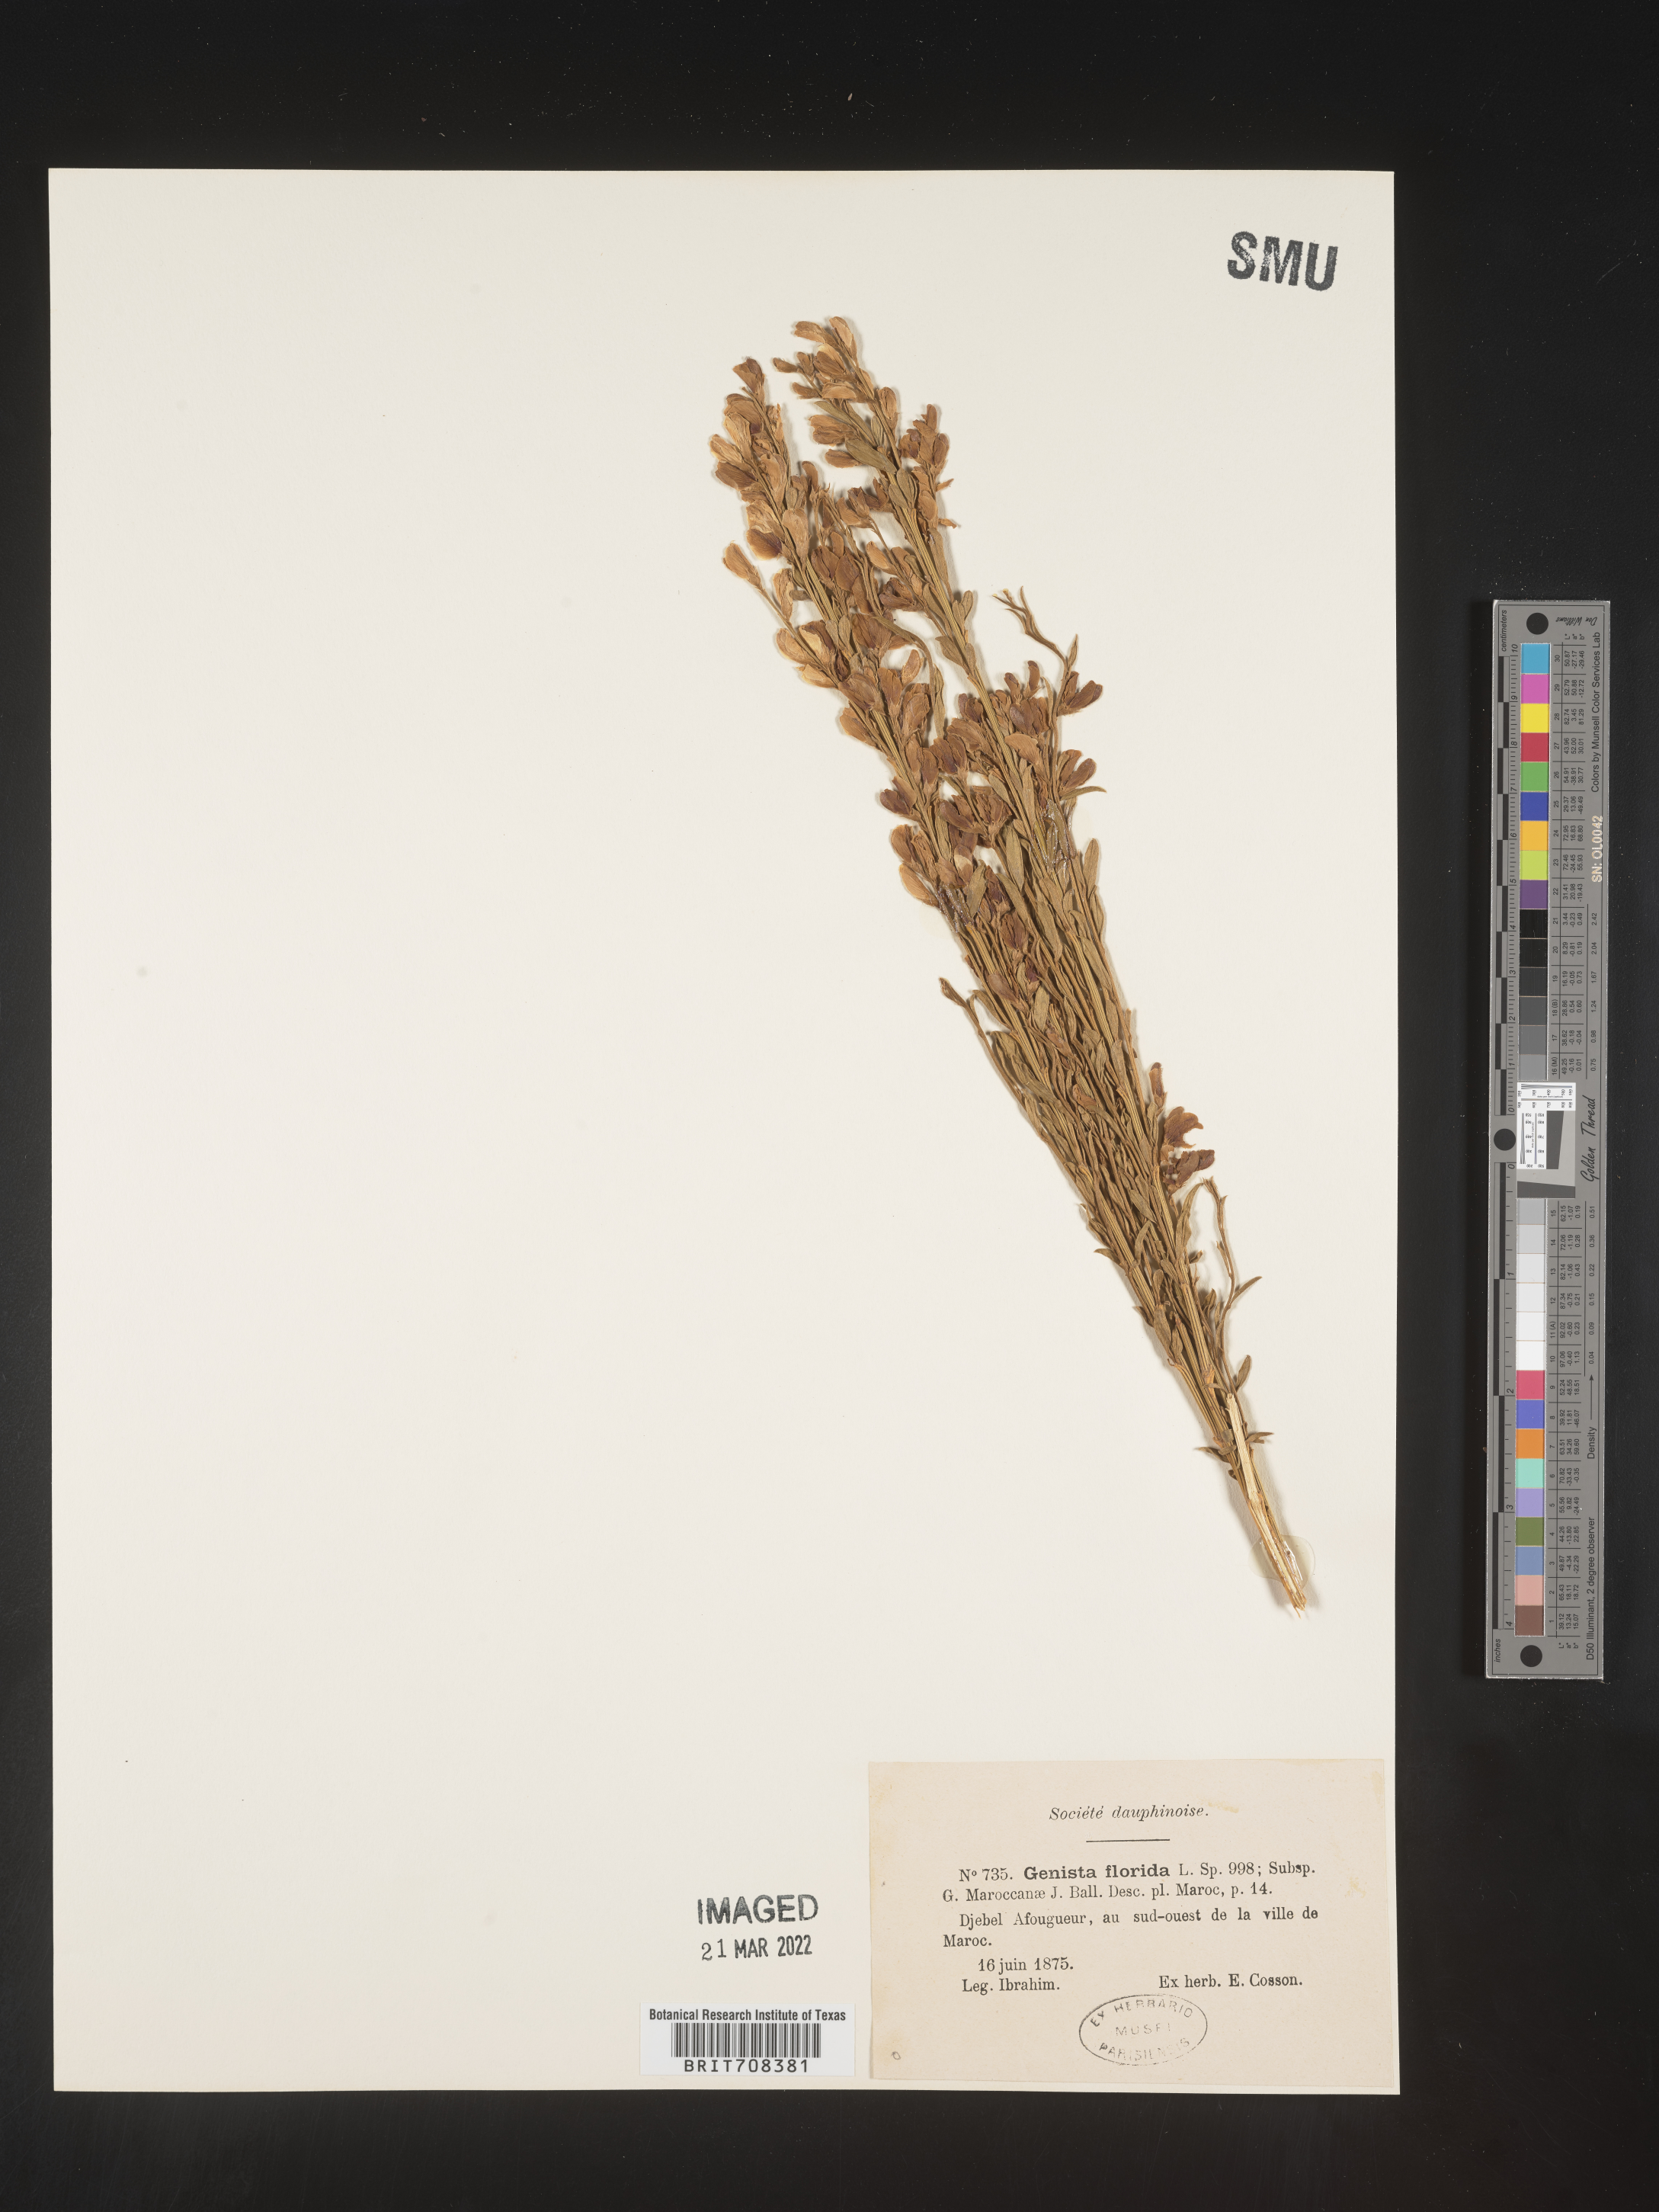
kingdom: Plantae
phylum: Tracheophyta
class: Magnoliopsida
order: Fabales
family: Fabaceae
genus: Genista
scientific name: Genista
